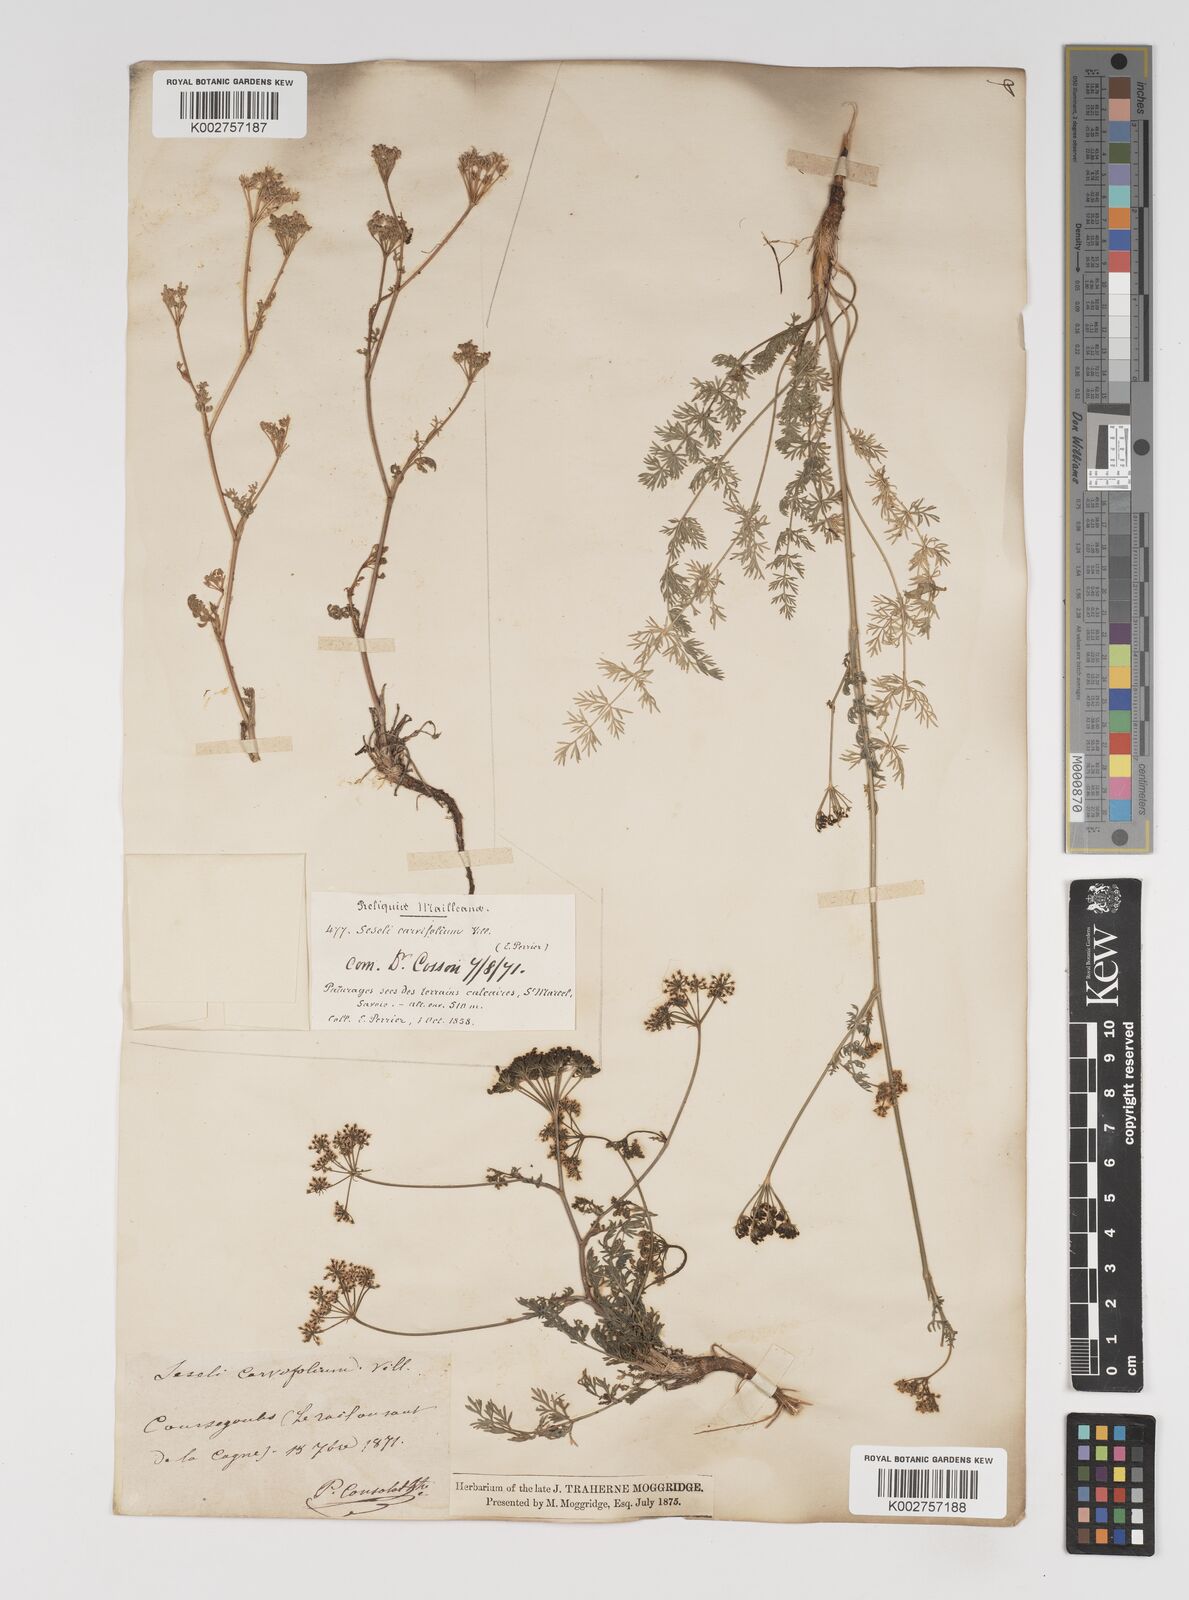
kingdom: Plantae
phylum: Tracheophyta
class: Magnoliopsida
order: Apiales
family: Apiaceae
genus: Seseli
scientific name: Seseli annuum
